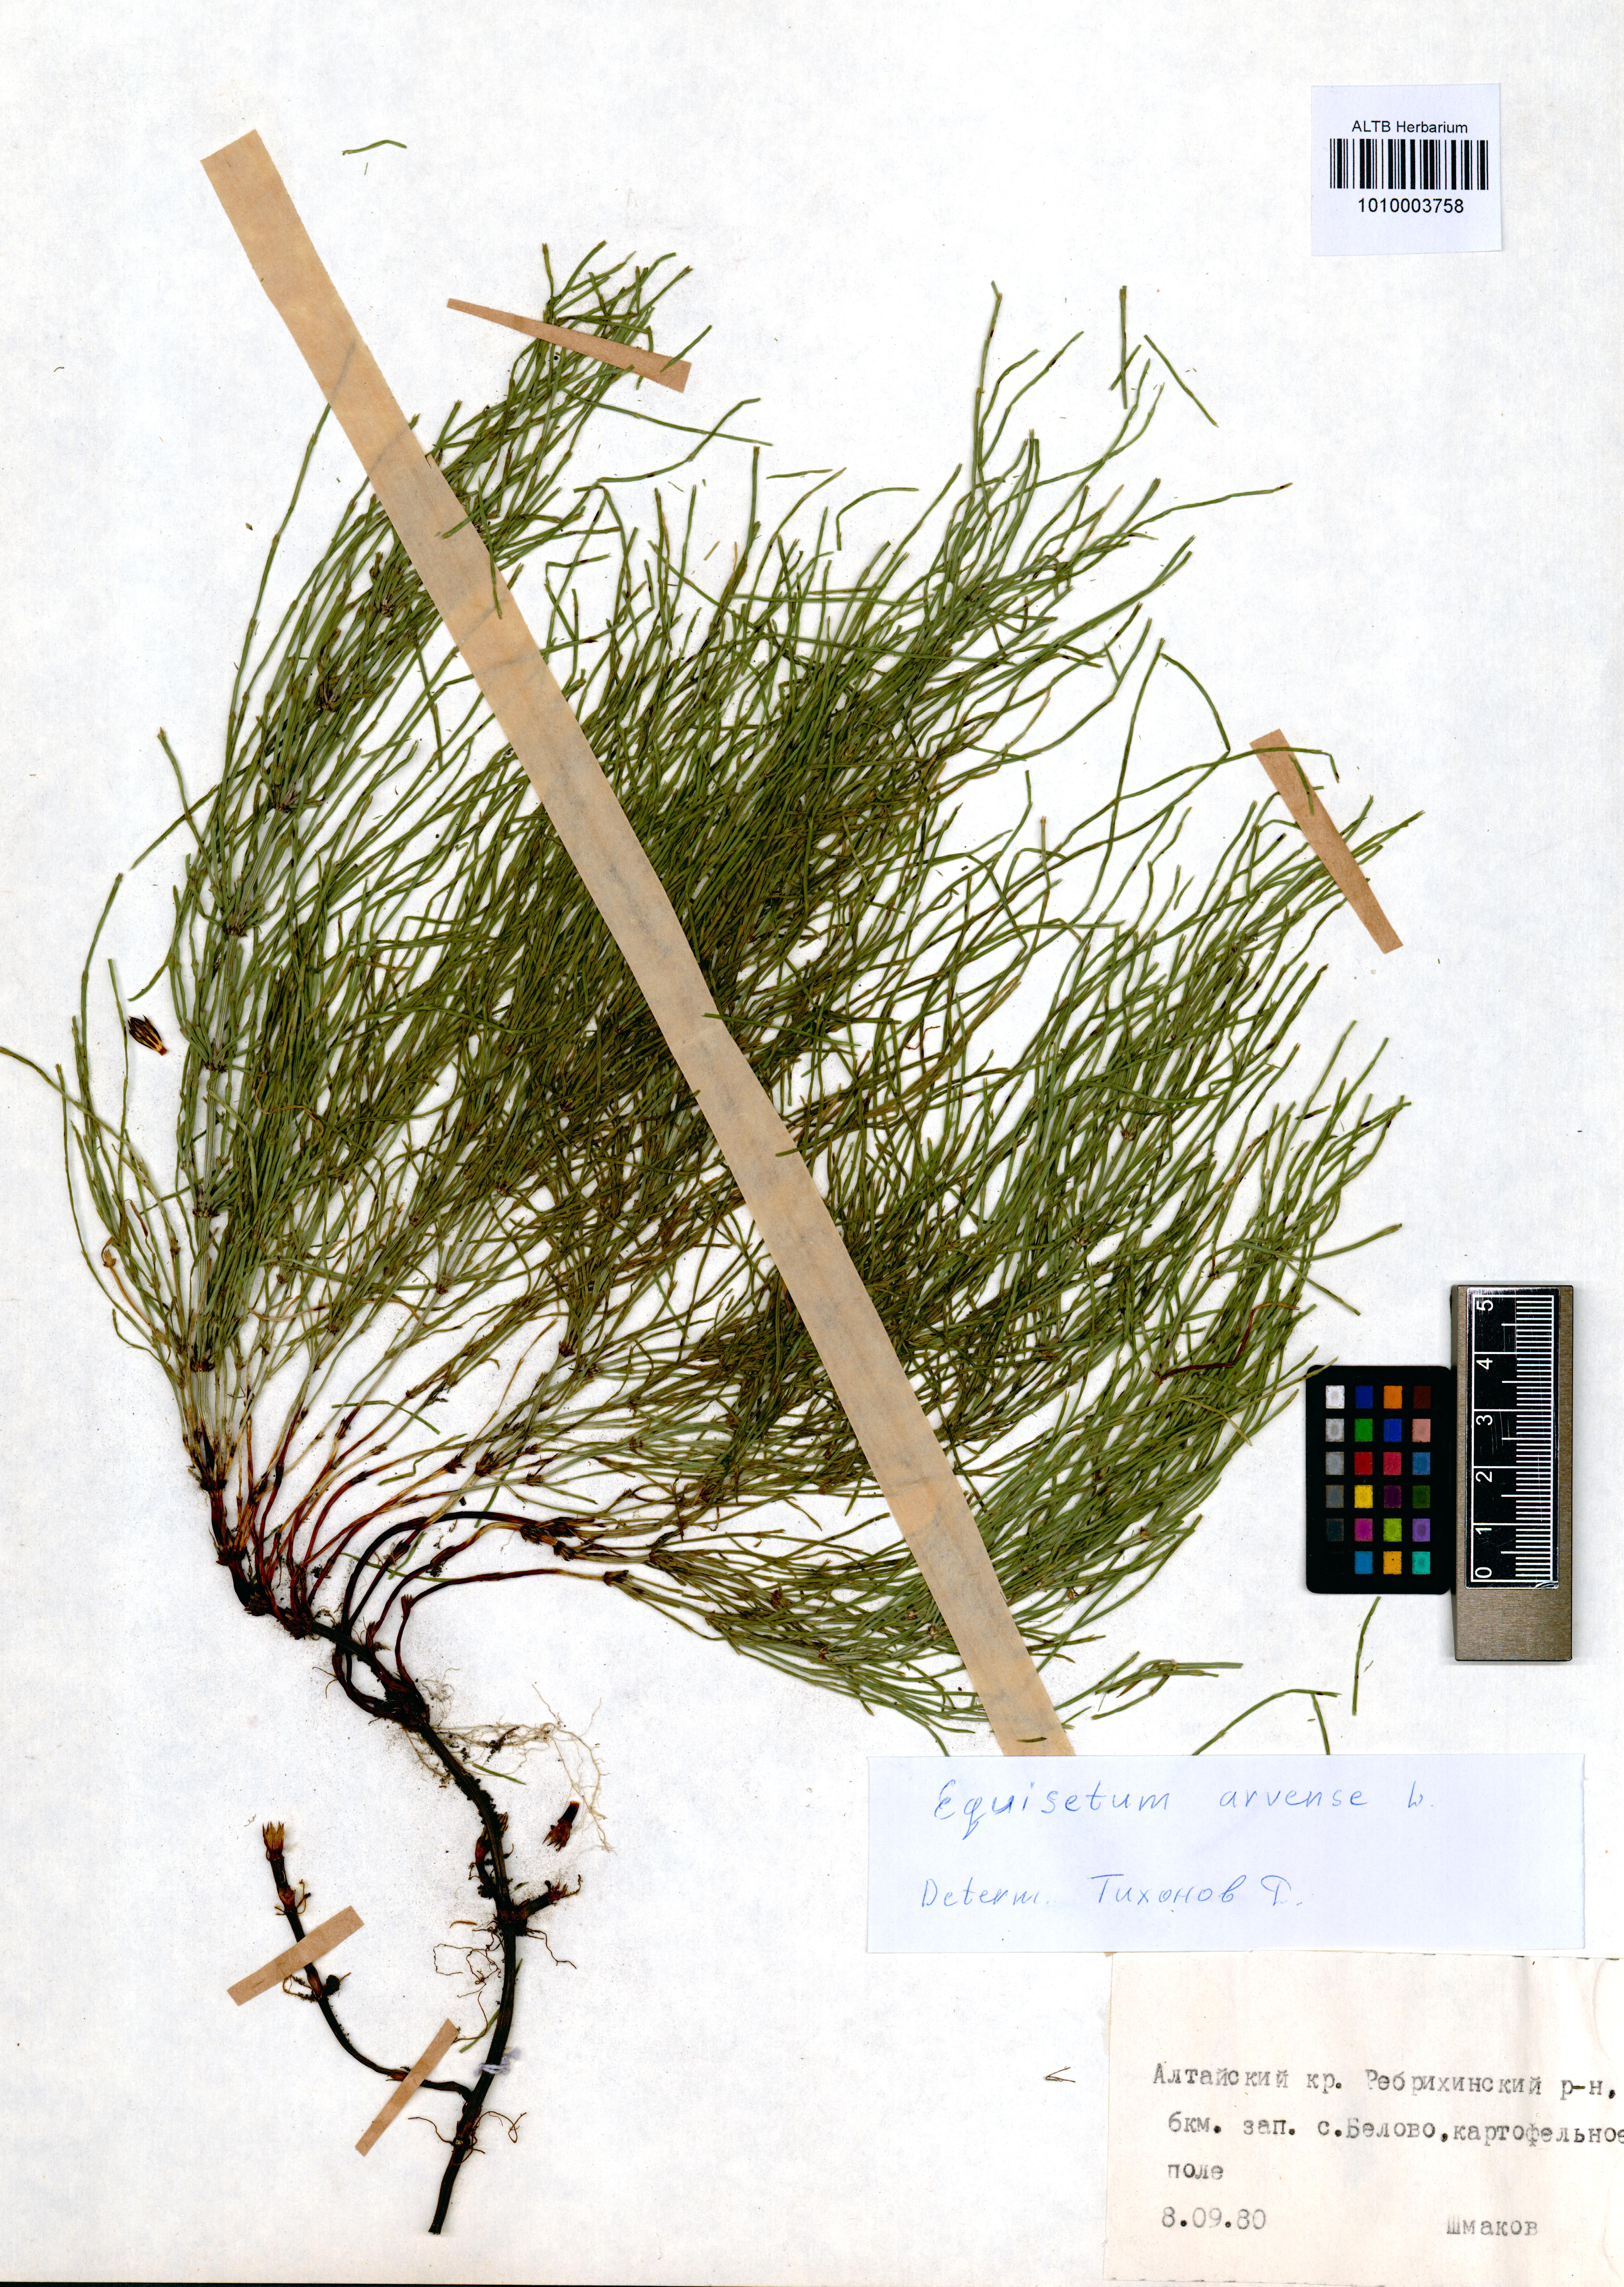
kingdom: Plantae
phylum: Tracheophyta
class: Polypodiopsida
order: Equisetales
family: Equisetaceae
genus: Equisetum
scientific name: Equisetum arvense
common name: Field horsetail
